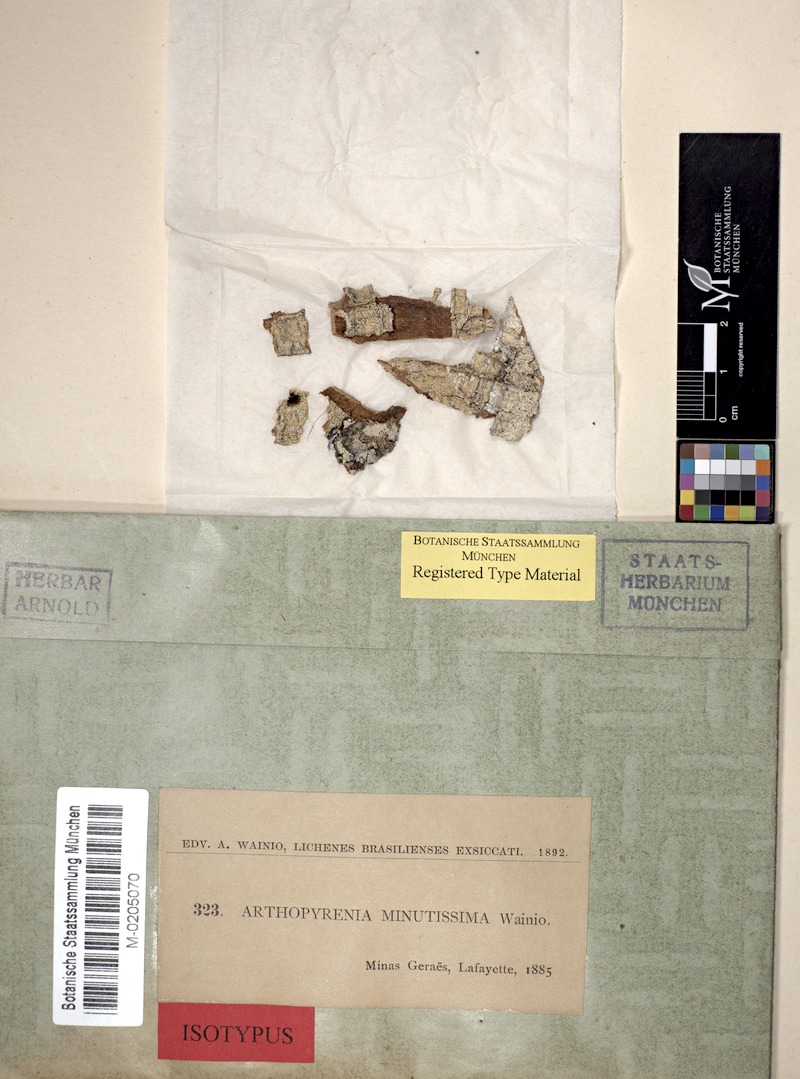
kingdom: Fungi
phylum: Ascomycota
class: Dothideomycetes
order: Trypetheliales
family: Trypetheliaceae
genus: Arthopyrenia
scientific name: Arthopyrenia
